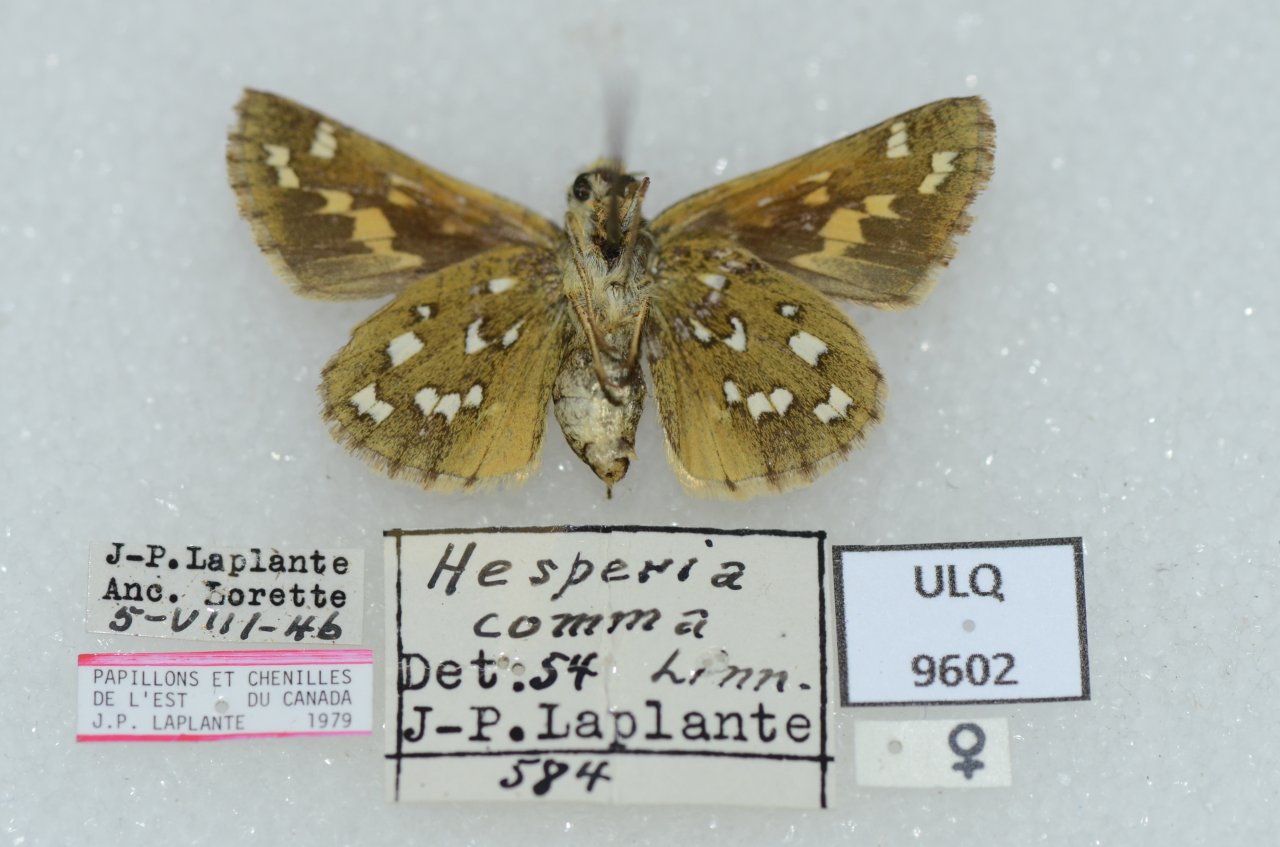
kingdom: Animalia
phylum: Arthropoda
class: Insecta
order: Lepidoptera
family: Hesperiidae
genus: Hesperia
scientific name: Hesperia comma
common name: Common Branded Skipper
